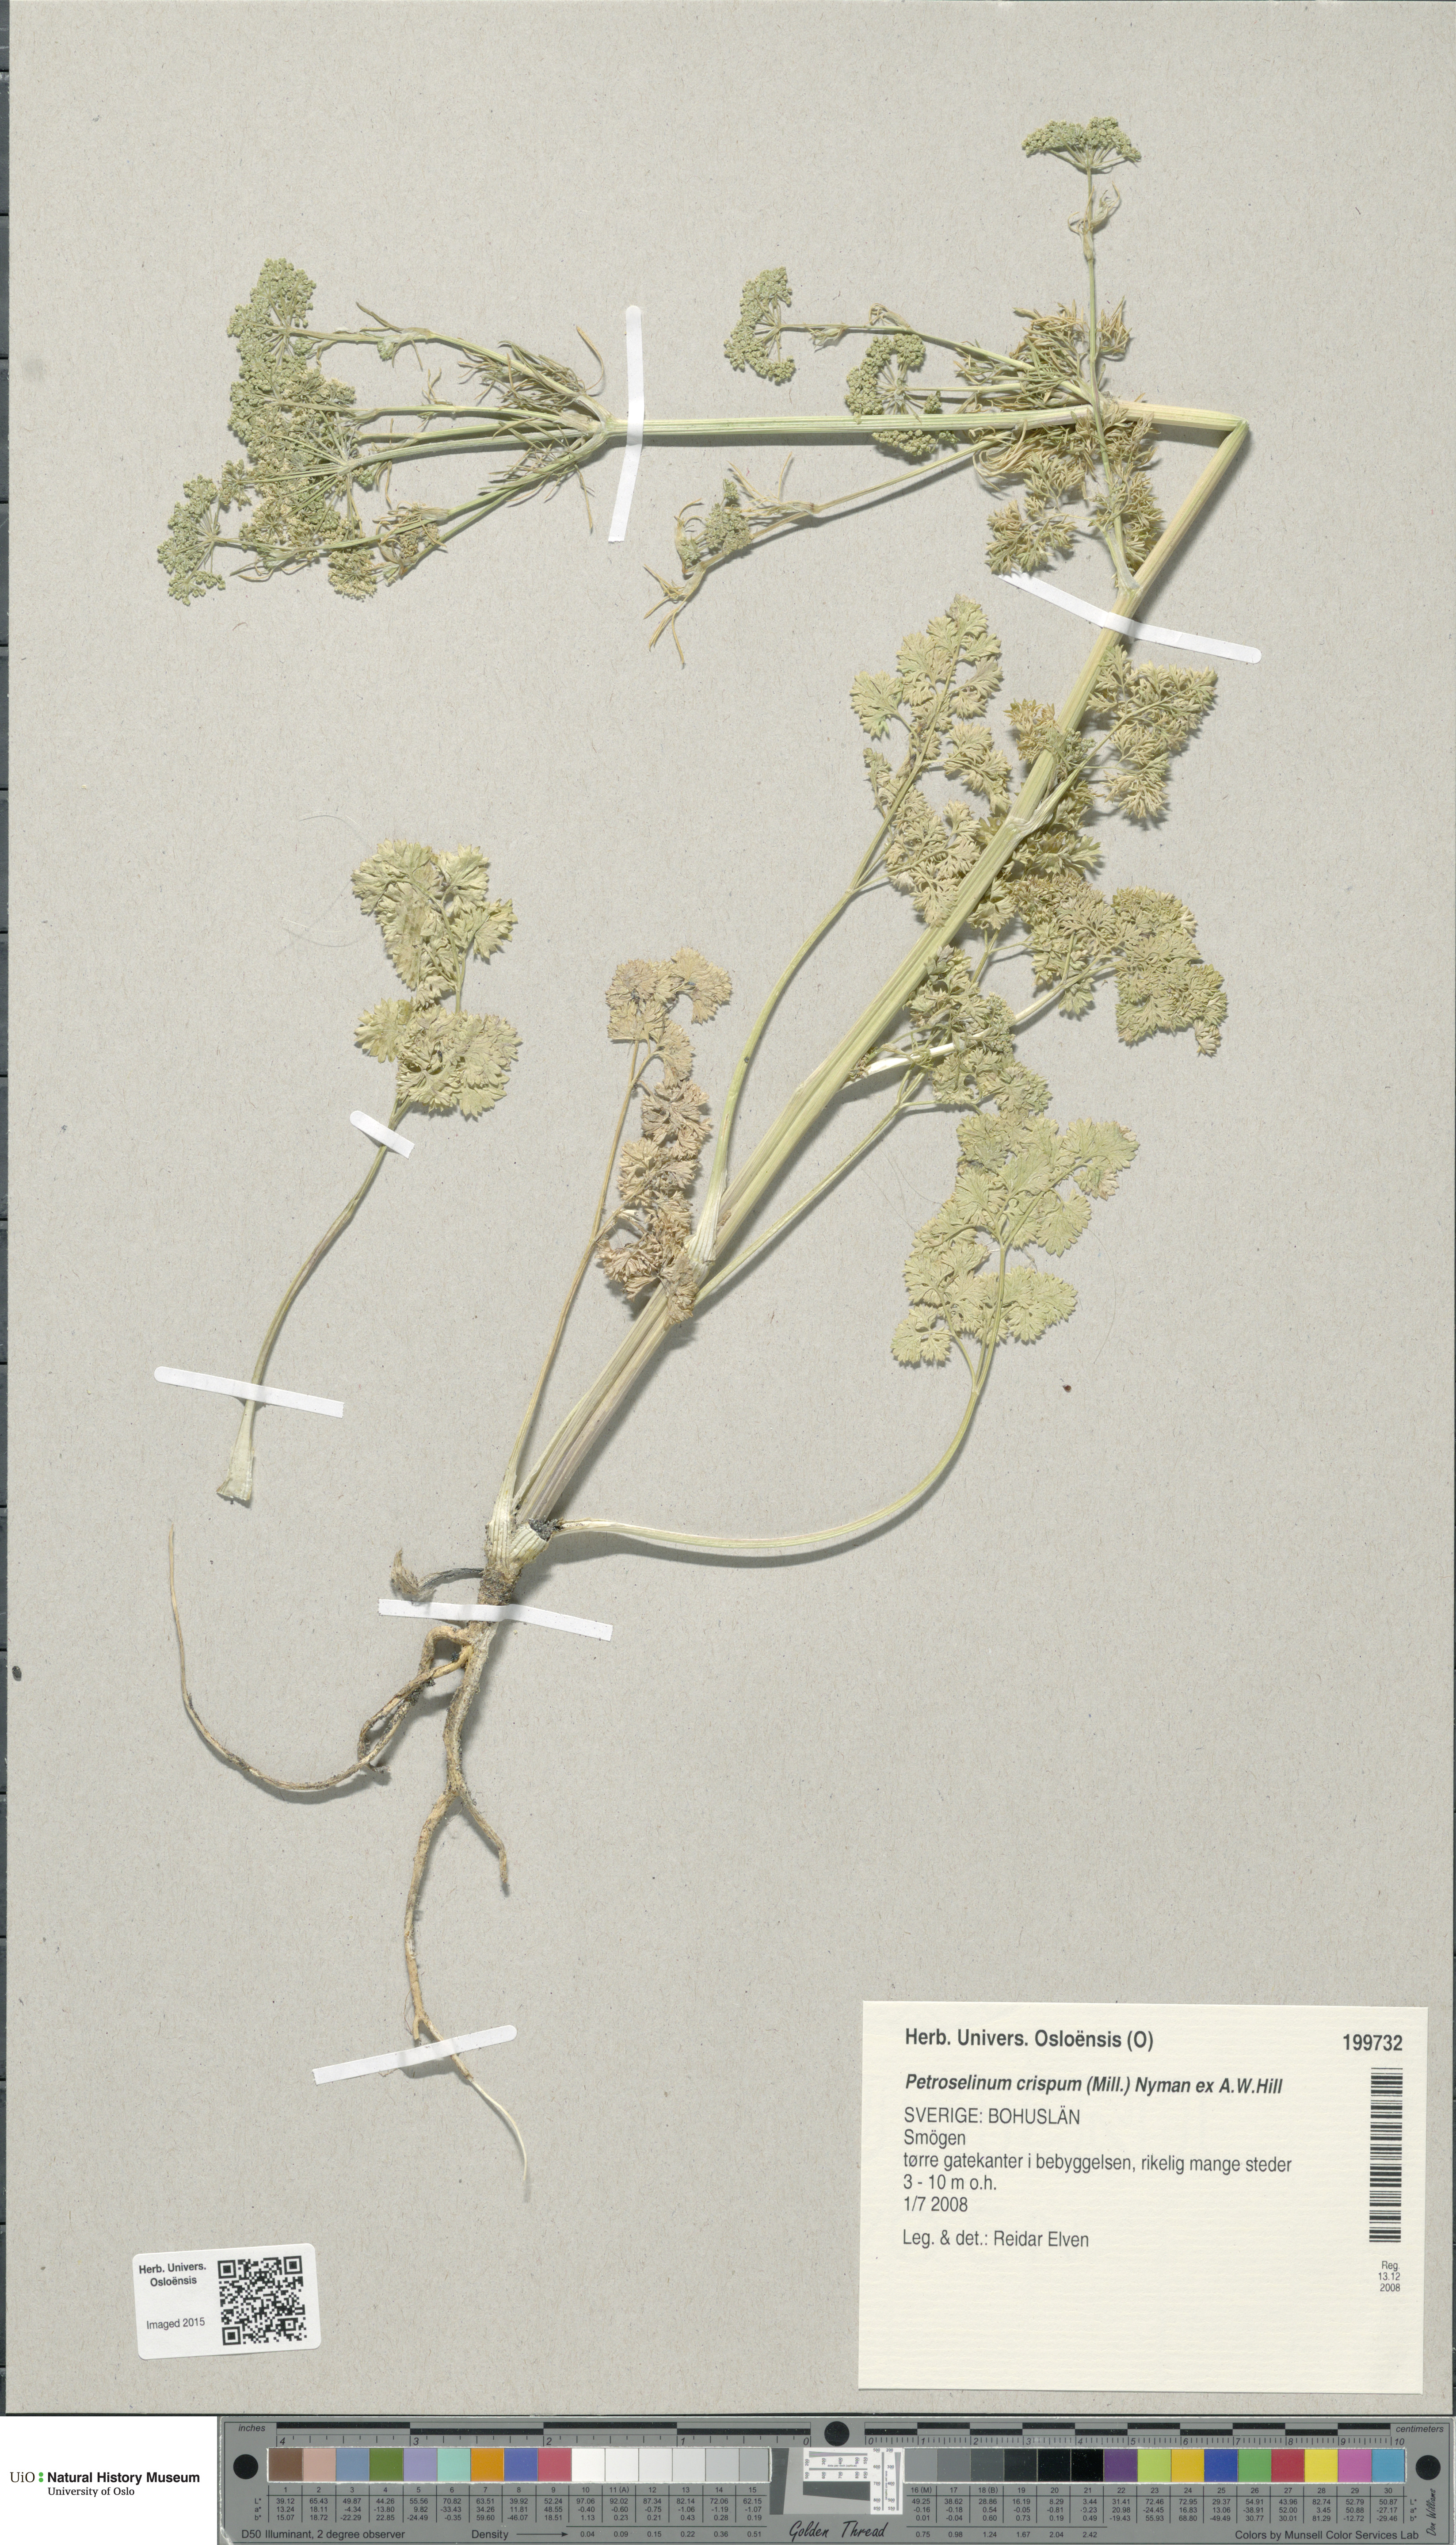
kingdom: Plantae
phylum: Tracheophyta
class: Magnoliopsida
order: Apiales
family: Apiaceae
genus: Petroselinum
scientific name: Petroselinum crispum
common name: Parsley
